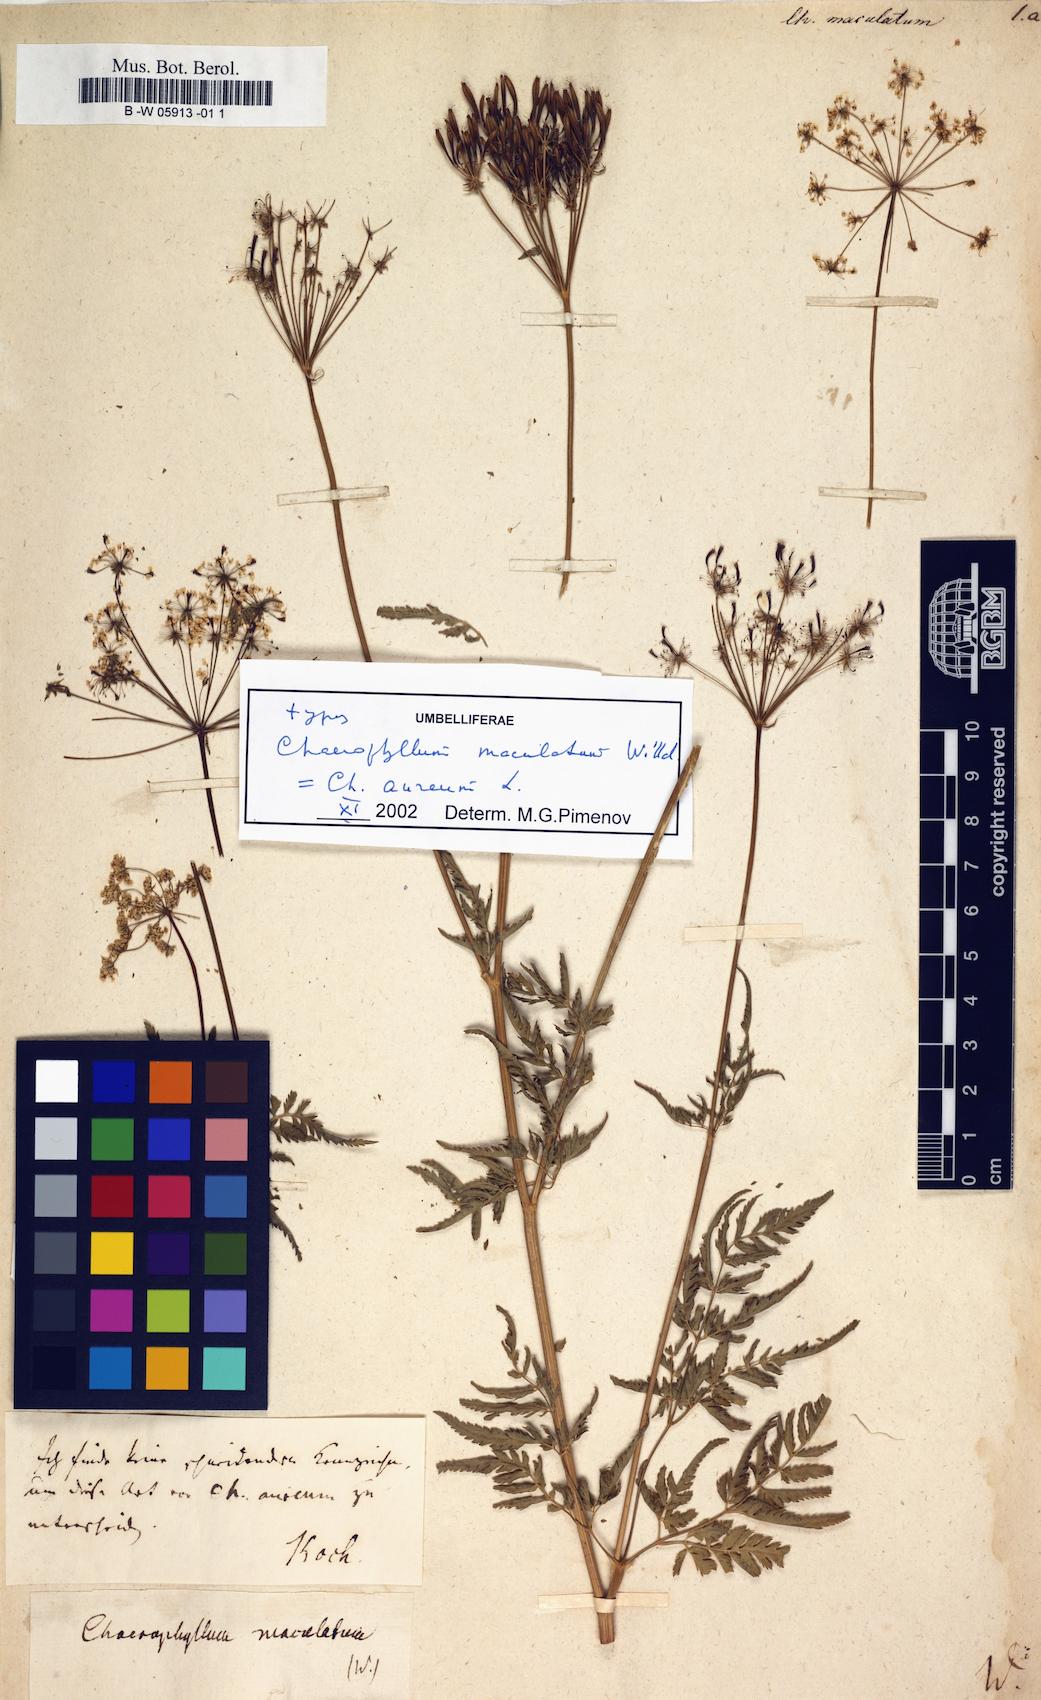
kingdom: Plantae
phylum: Tracheophyta
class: Magnoliopsida
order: Apiales
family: Apiaceae
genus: Chaerophyllum
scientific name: Chaerophyllum aureum
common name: Golden chervil
